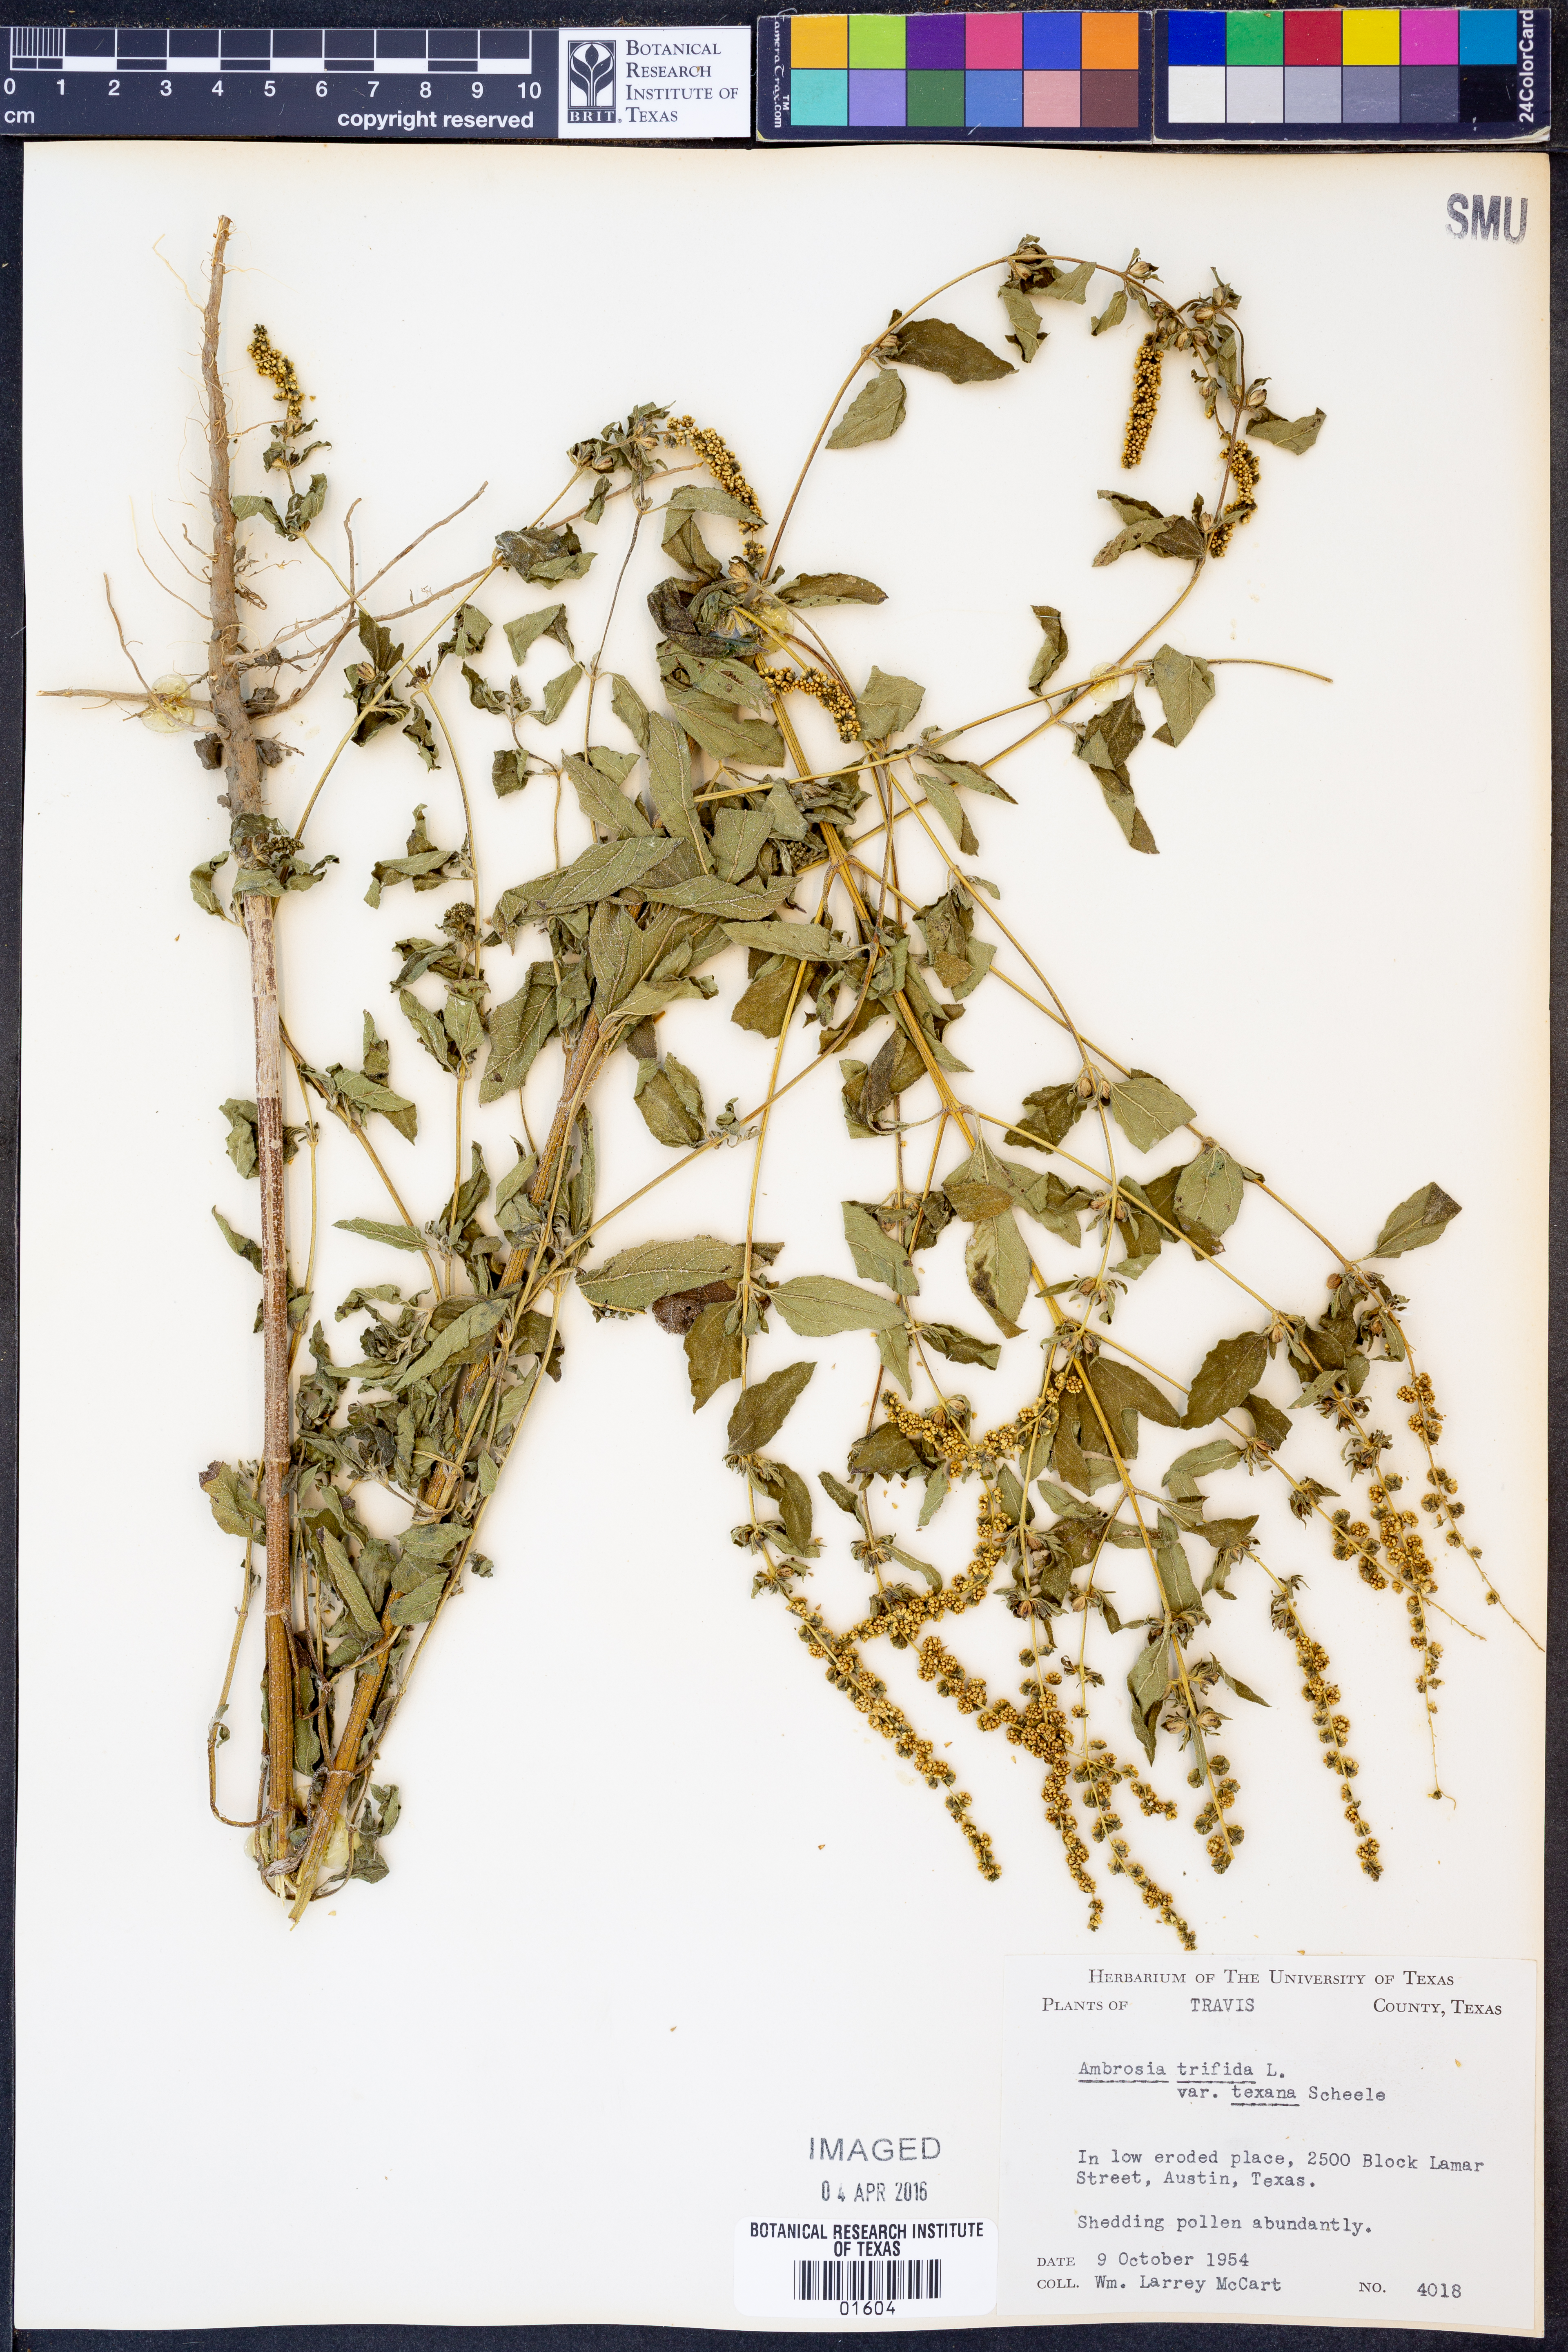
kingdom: Plantae
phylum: Tracheophyta
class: Magnoliopsida
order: Asterales
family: Asteraceae
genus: Ambrosia
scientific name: Ambrosia trifida
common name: Giant ragweed
